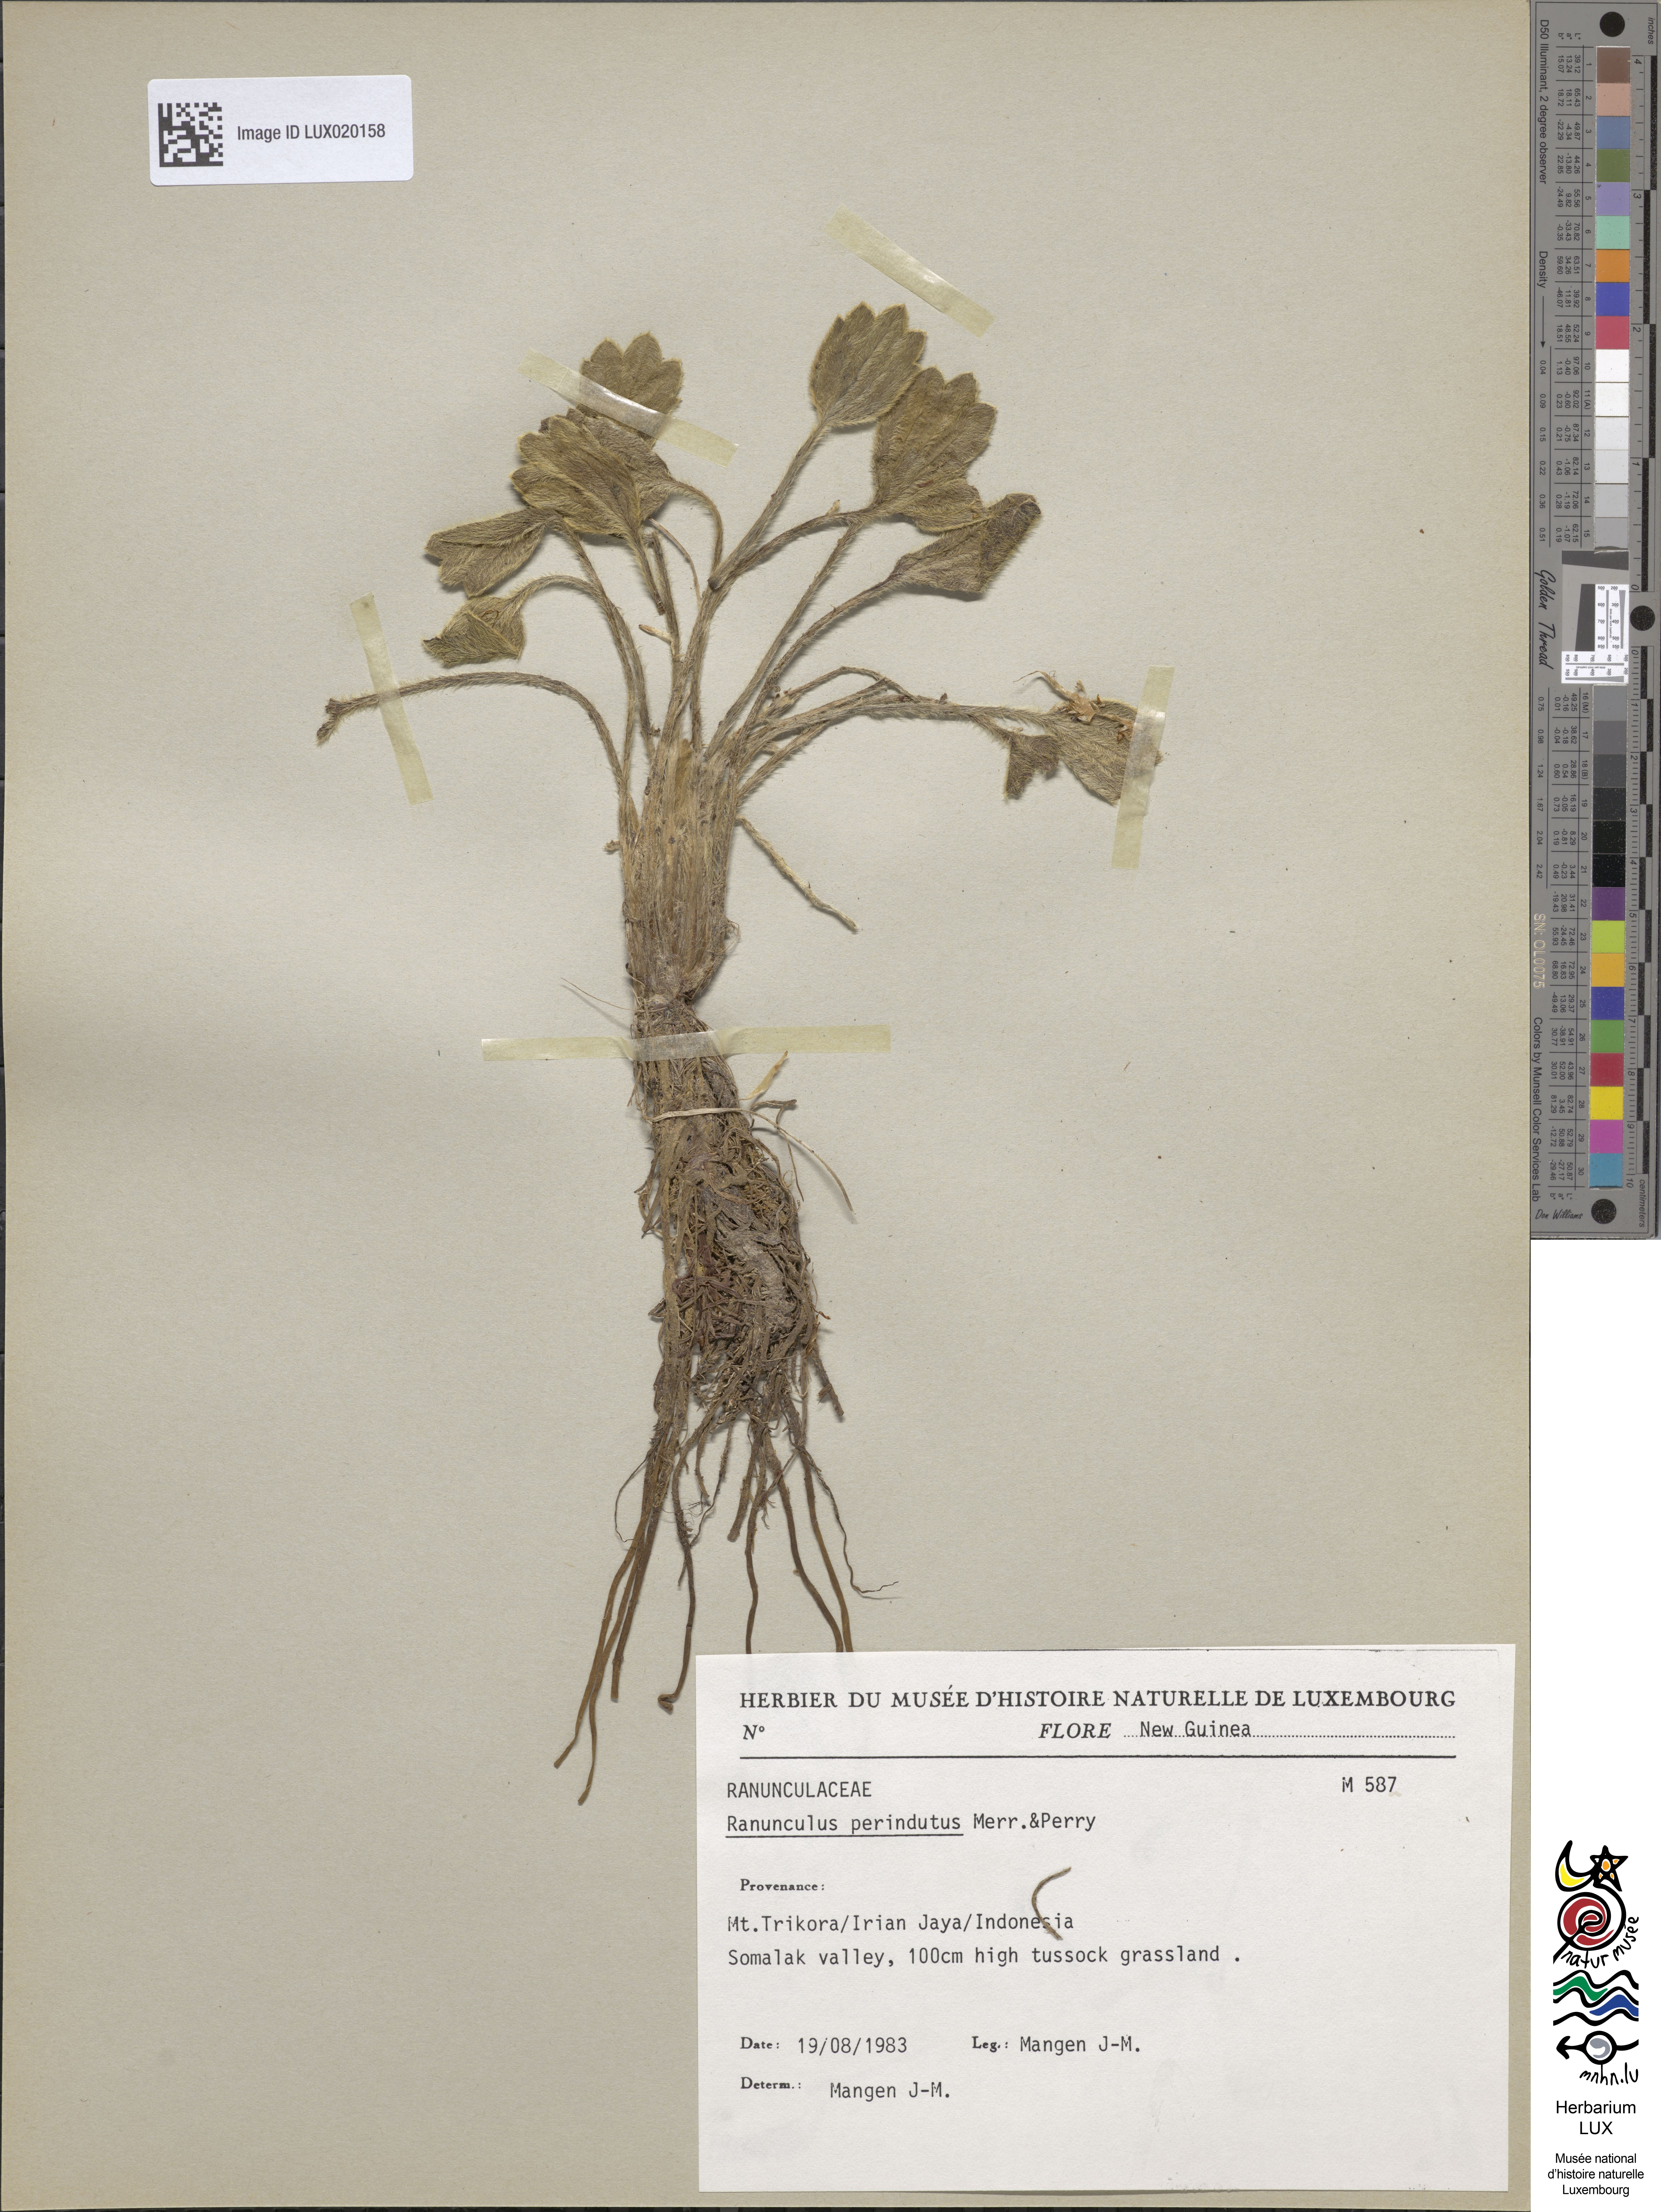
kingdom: Plantae
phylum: Tracheophyta
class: Magnoliopsida
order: Ranunculales
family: Ranunculaceae
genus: Ranunculus
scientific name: Ranunculus perindutus
